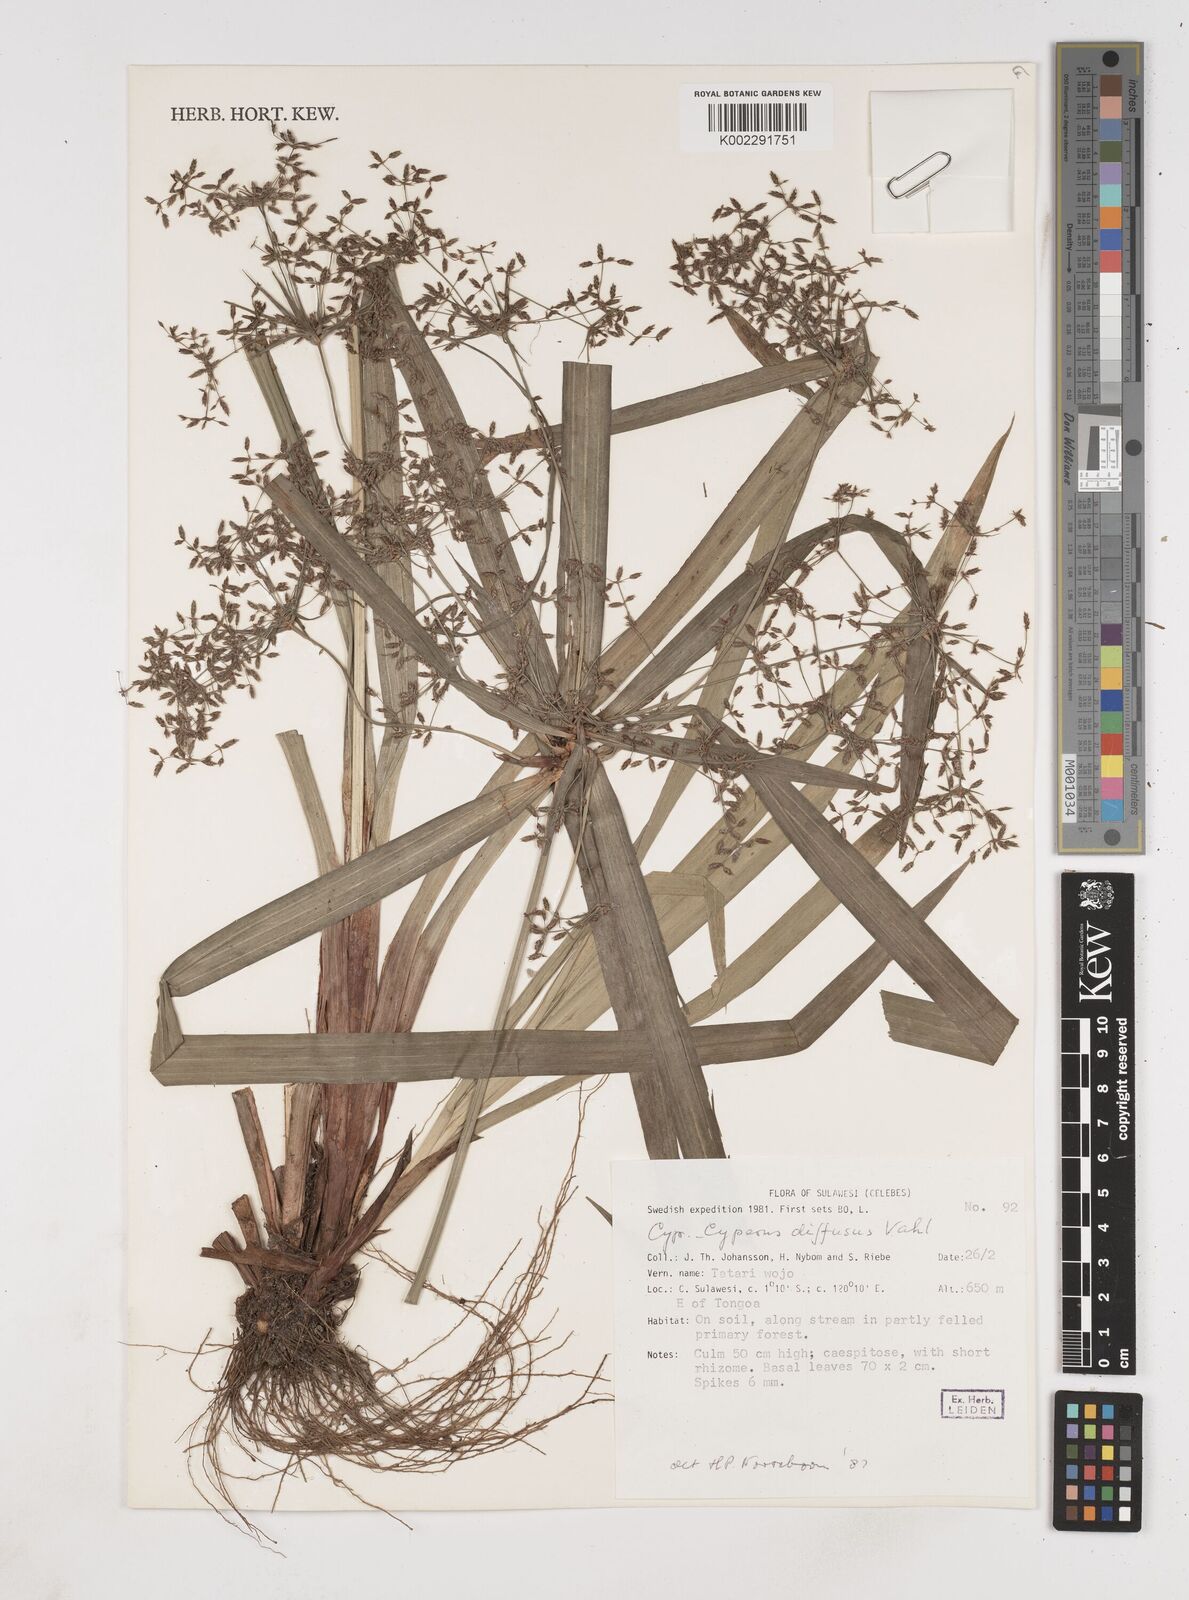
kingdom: Plantae
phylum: Tracheophyta
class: Liliopsida
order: Poales
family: Cyperaceae
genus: Cyperus
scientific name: Cyperus diffusus
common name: Dwarf umbrella grass
